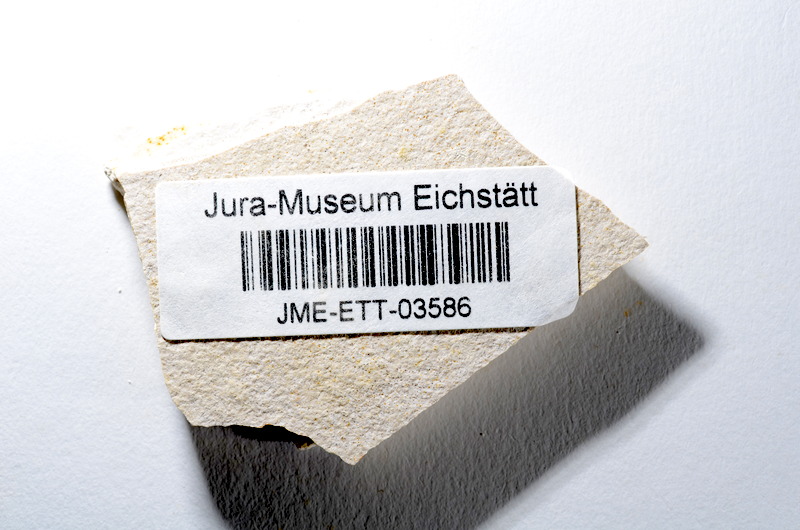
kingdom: Animalia
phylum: Chordata
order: Salmoniformes
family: Orthogonikleithridae
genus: Orthogonikleithrus
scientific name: Orthogonikleithrus hoelli
